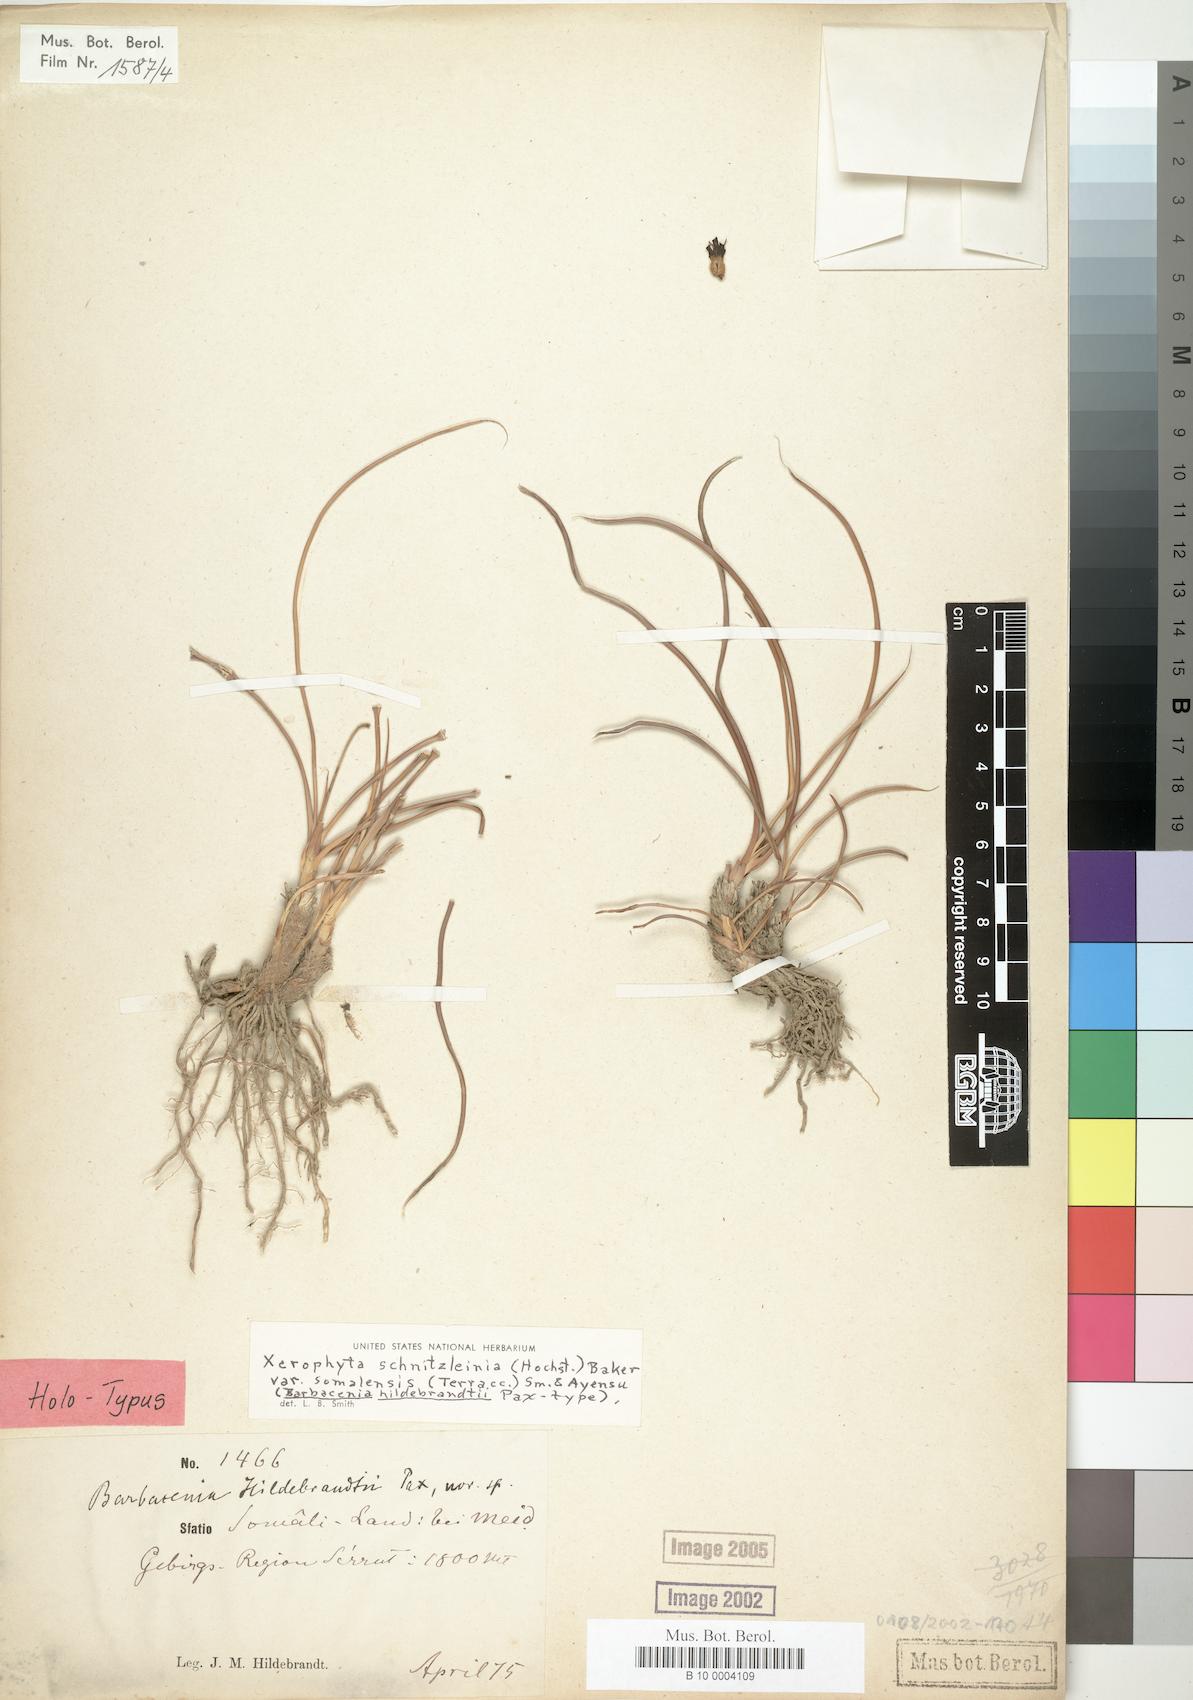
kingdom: Plantae
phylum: Tracheophyta
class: Liliopsida
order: Pandanales
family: Velloziaceae
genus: Xerophyta
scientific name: Xerophyta schnizleinia
